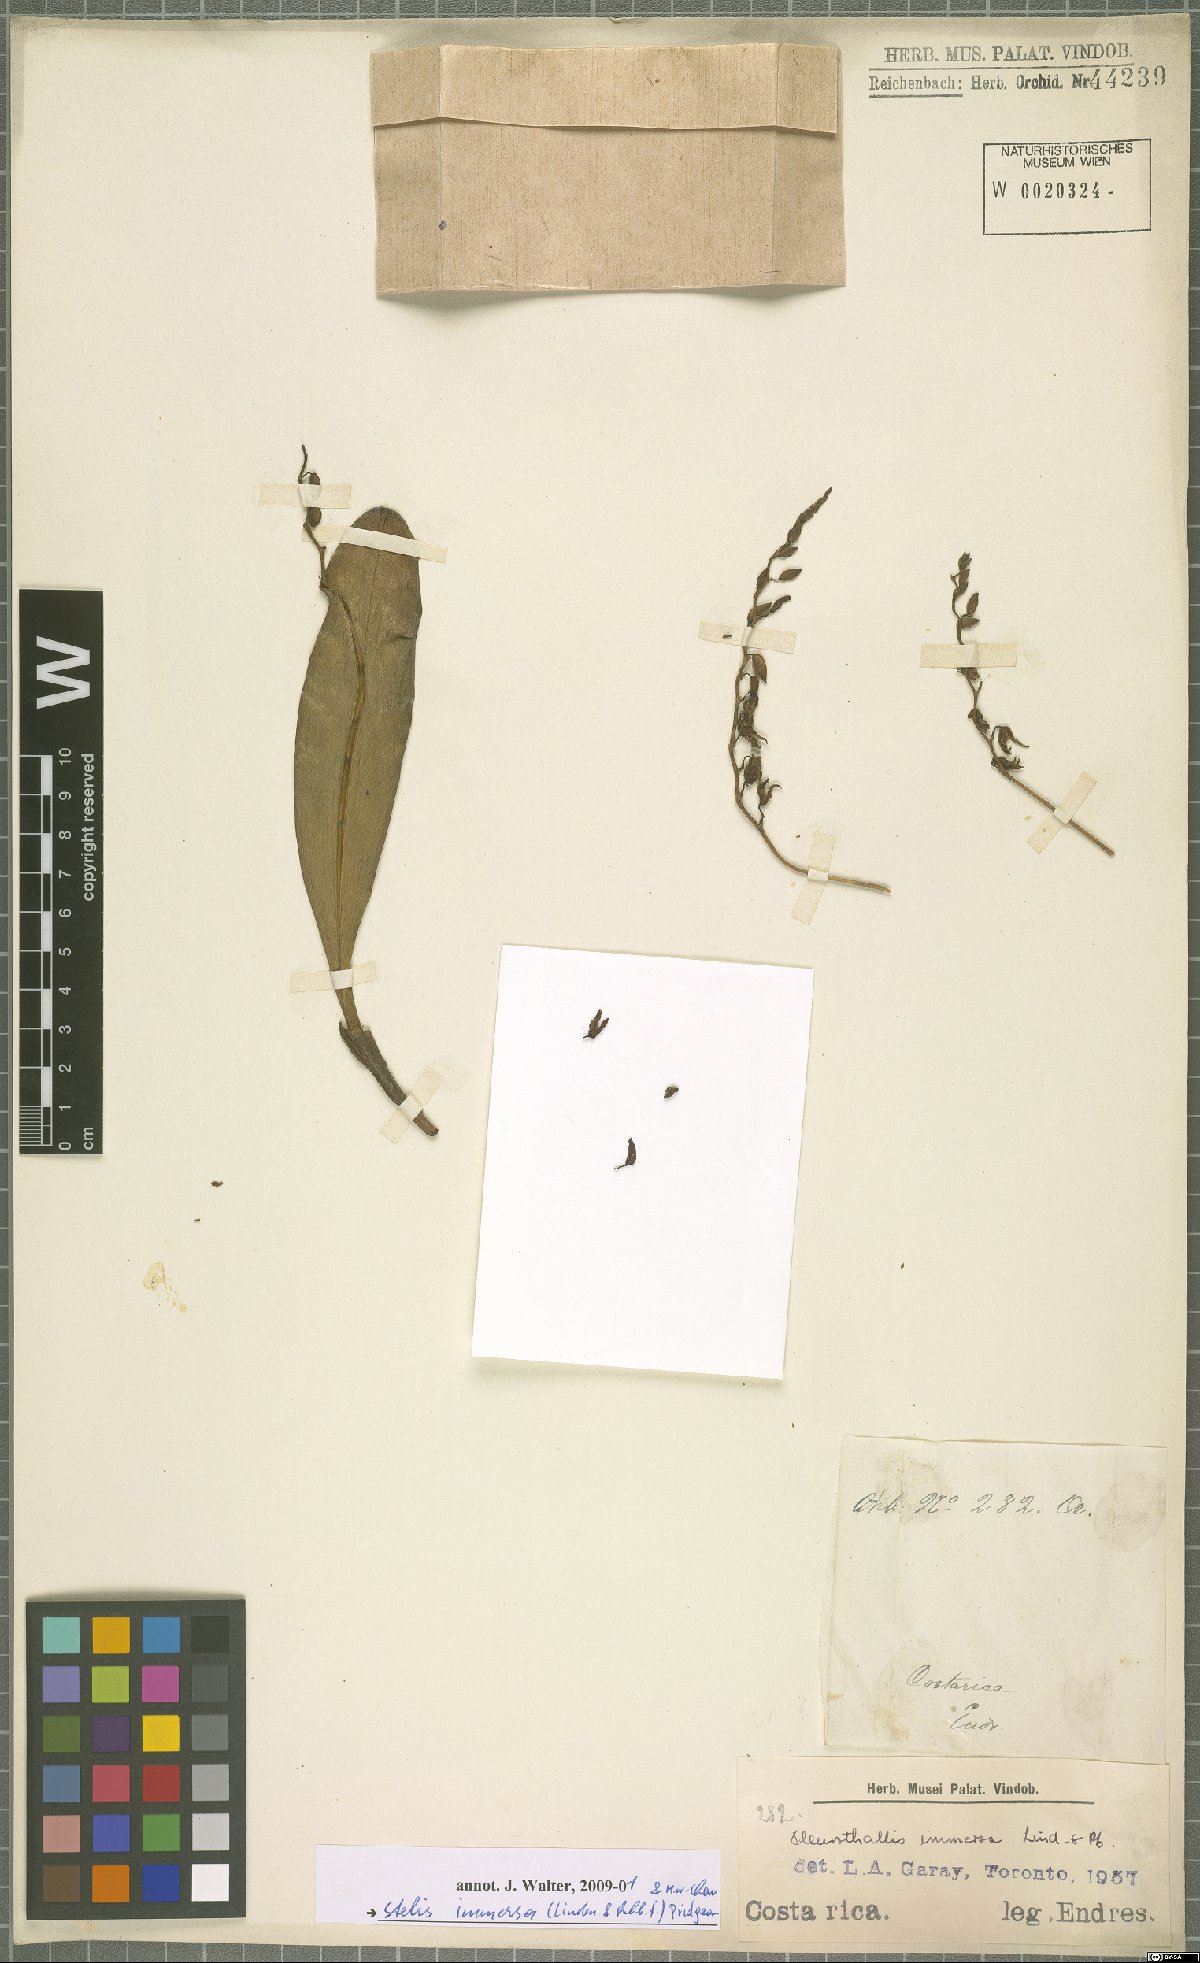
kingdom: Plantae
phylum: Tracheophyta
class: Liliopsida
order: Asparagales
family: Orchidaceae
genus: Stelis
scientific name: Stelis immersa
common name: Sunken pleurothallis
